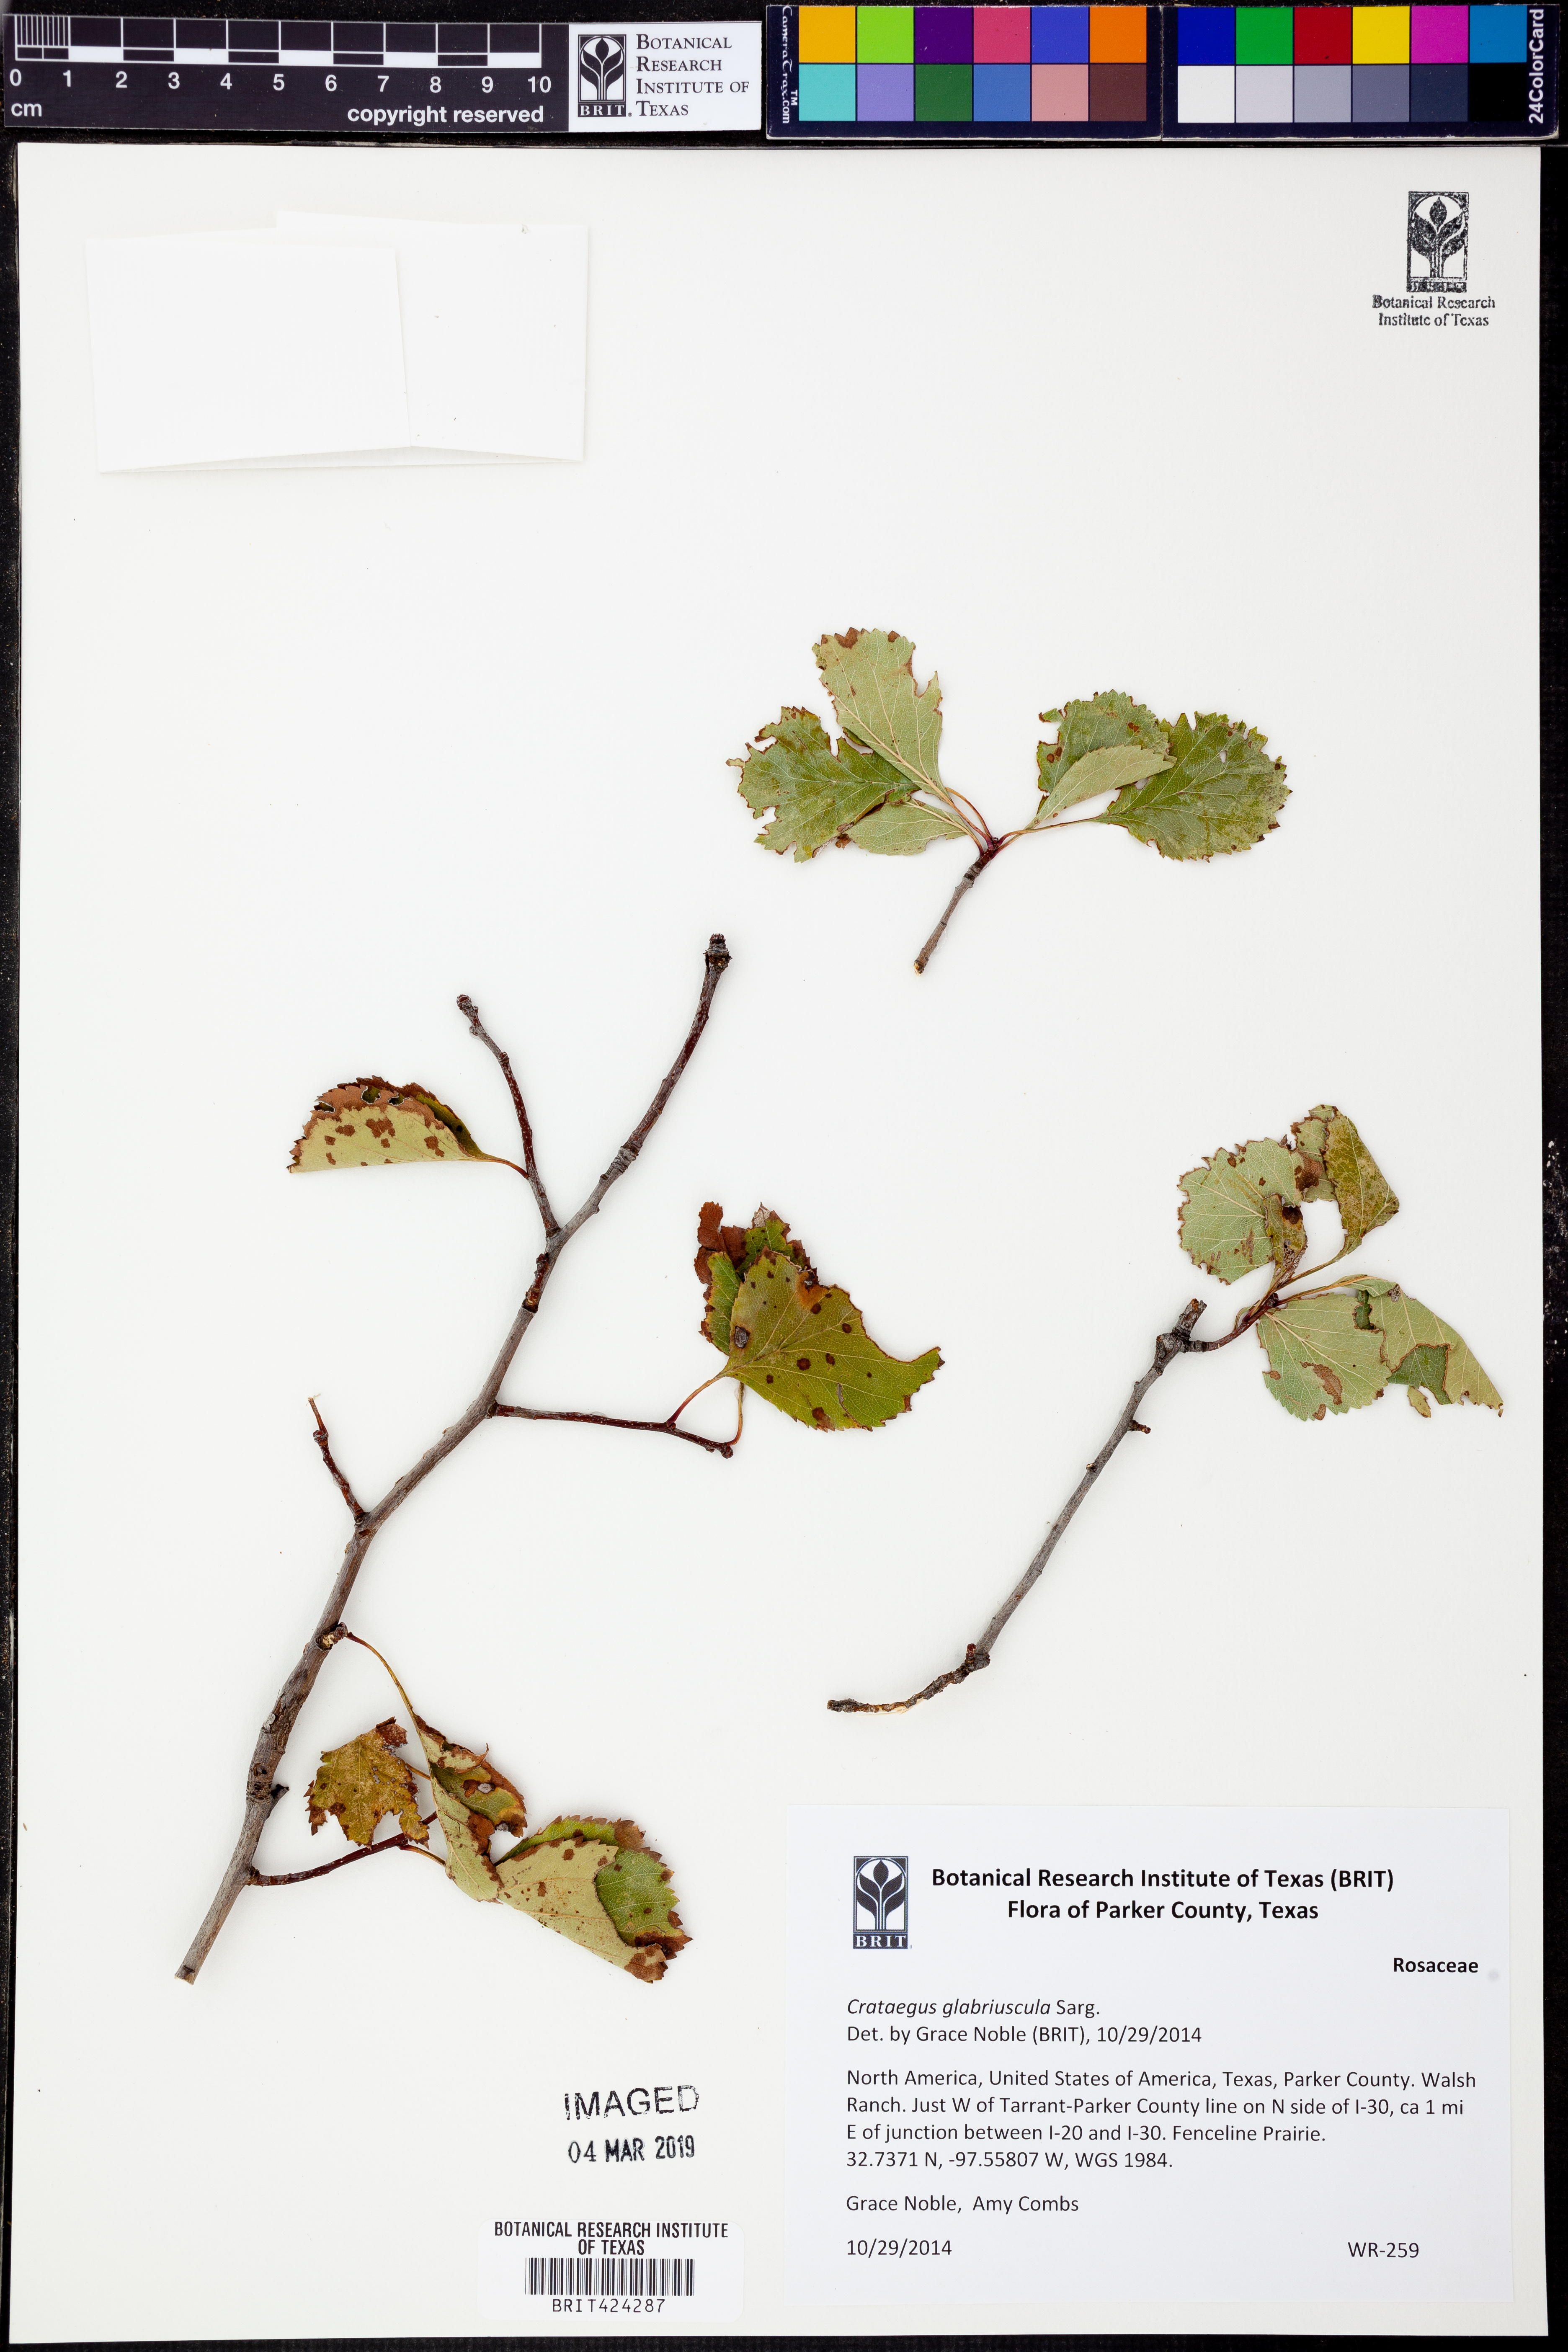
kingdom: Plantae
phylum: Tracheophyta
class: Magnoliopsida
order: Rosales
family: Rosaceae
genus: Crataegus
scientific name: Crataegus viridis
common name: Southernthorn
